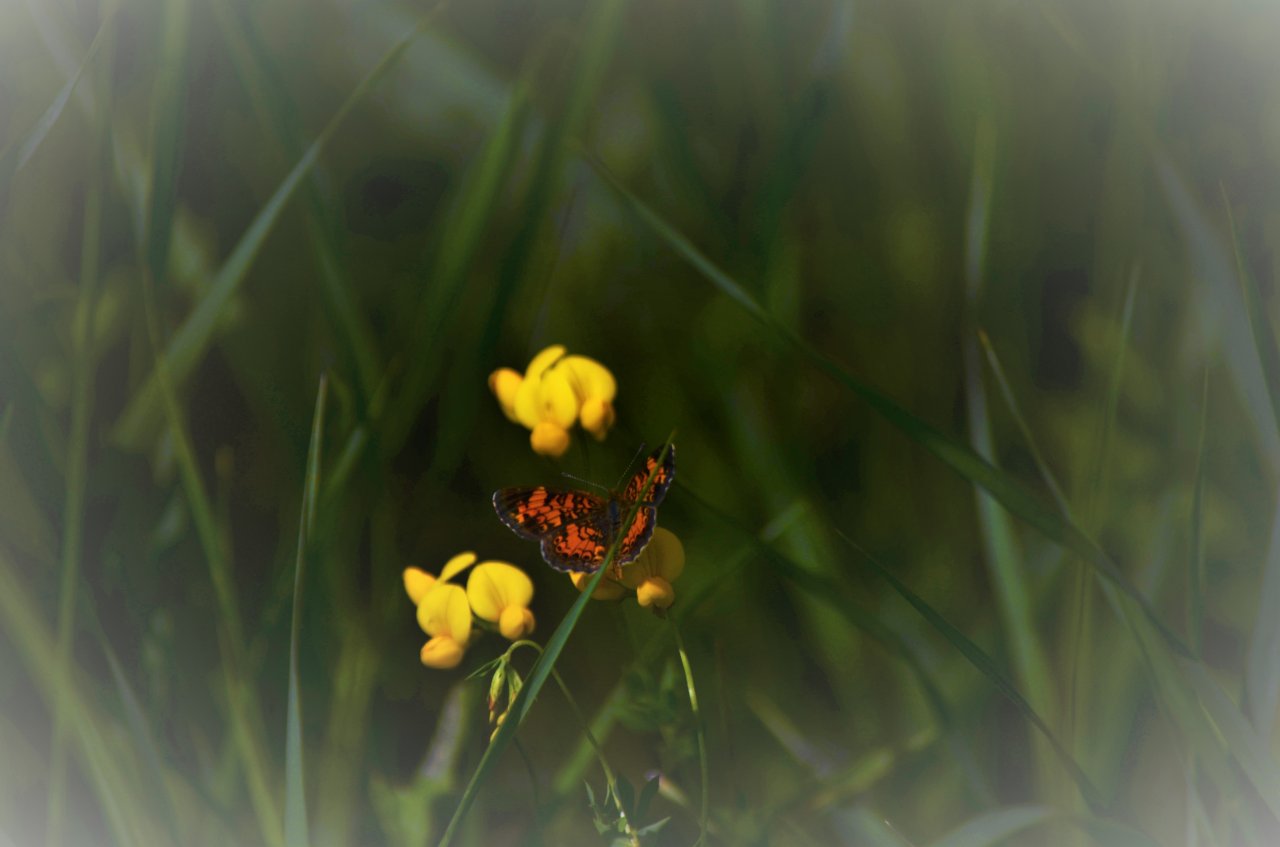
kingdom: Animalia
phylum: Arthropoda
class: Insecta
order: Lepidoptera
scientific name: Lepidoptera
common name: Butterflies
